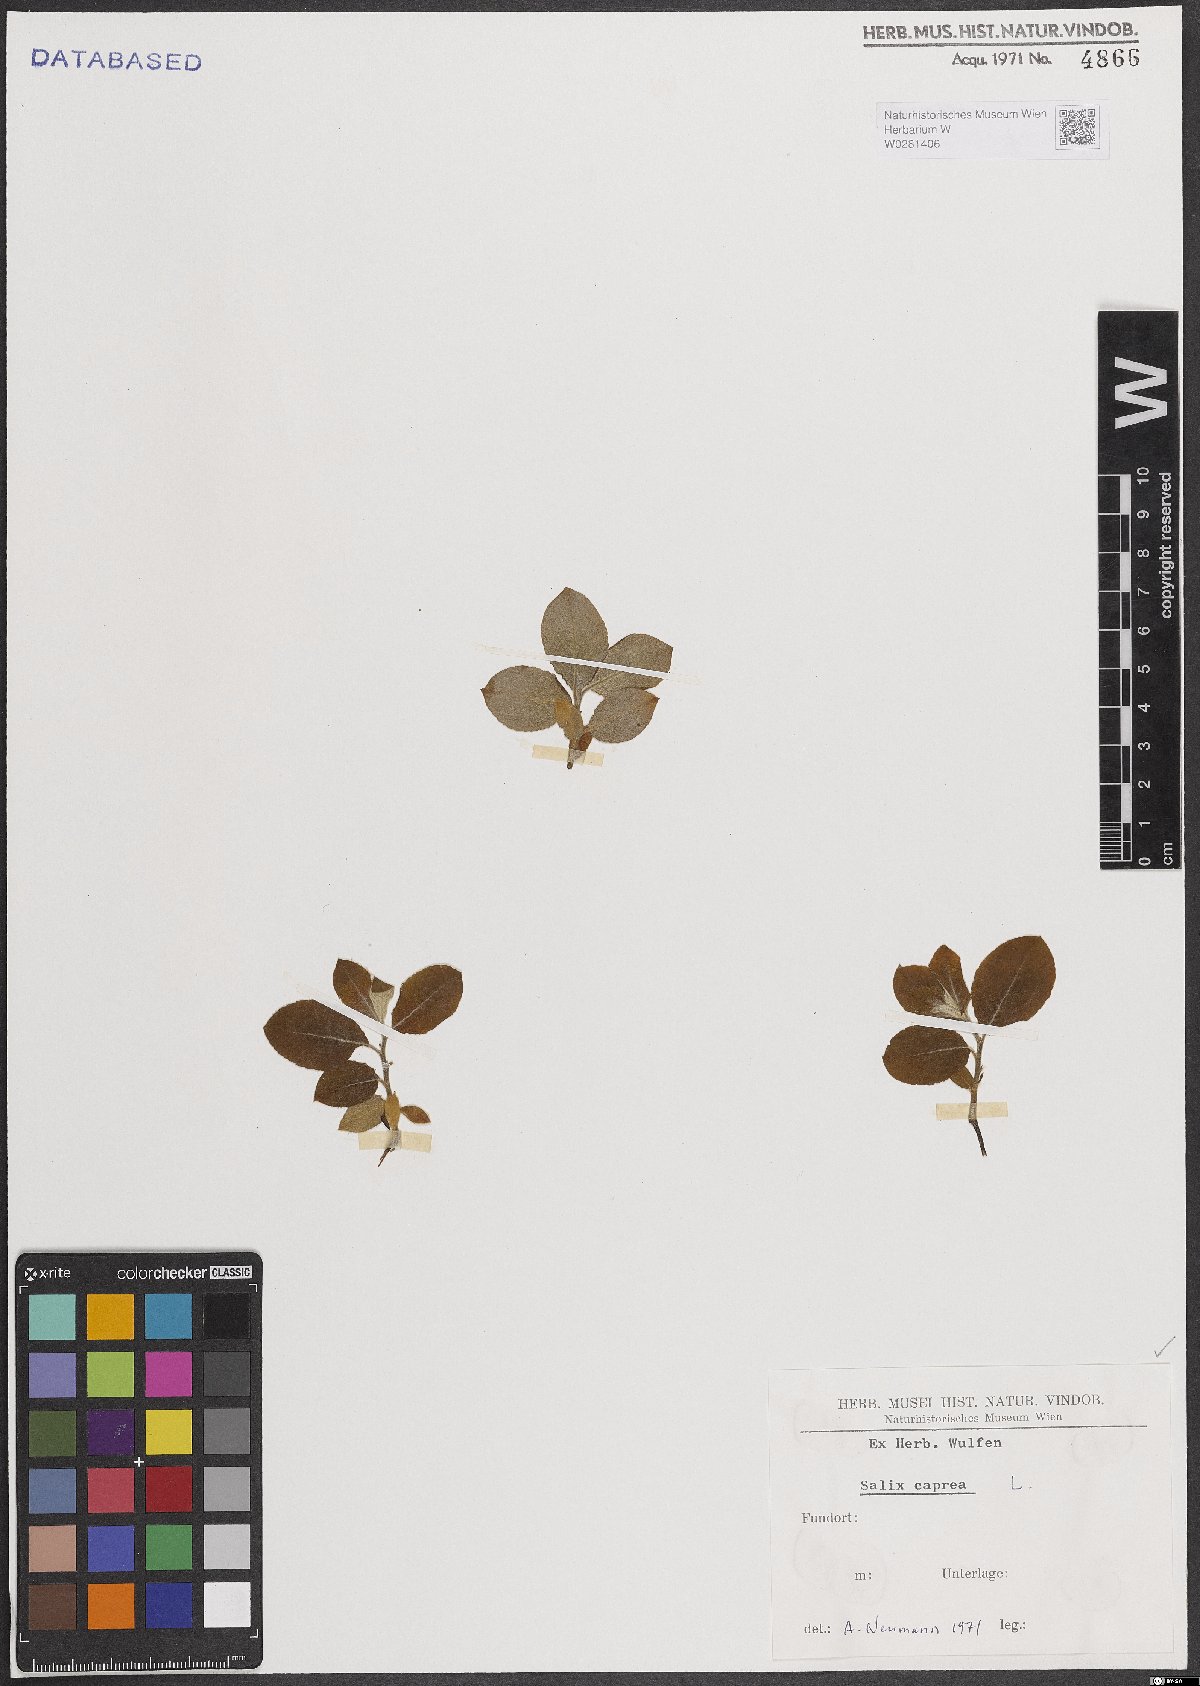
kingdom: Plantae
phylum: Tracheophyta
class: Magnoliopsida
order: Malpighiales
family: Salicaceae
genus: Salix
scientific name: Salix caprea
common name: Goat willow
